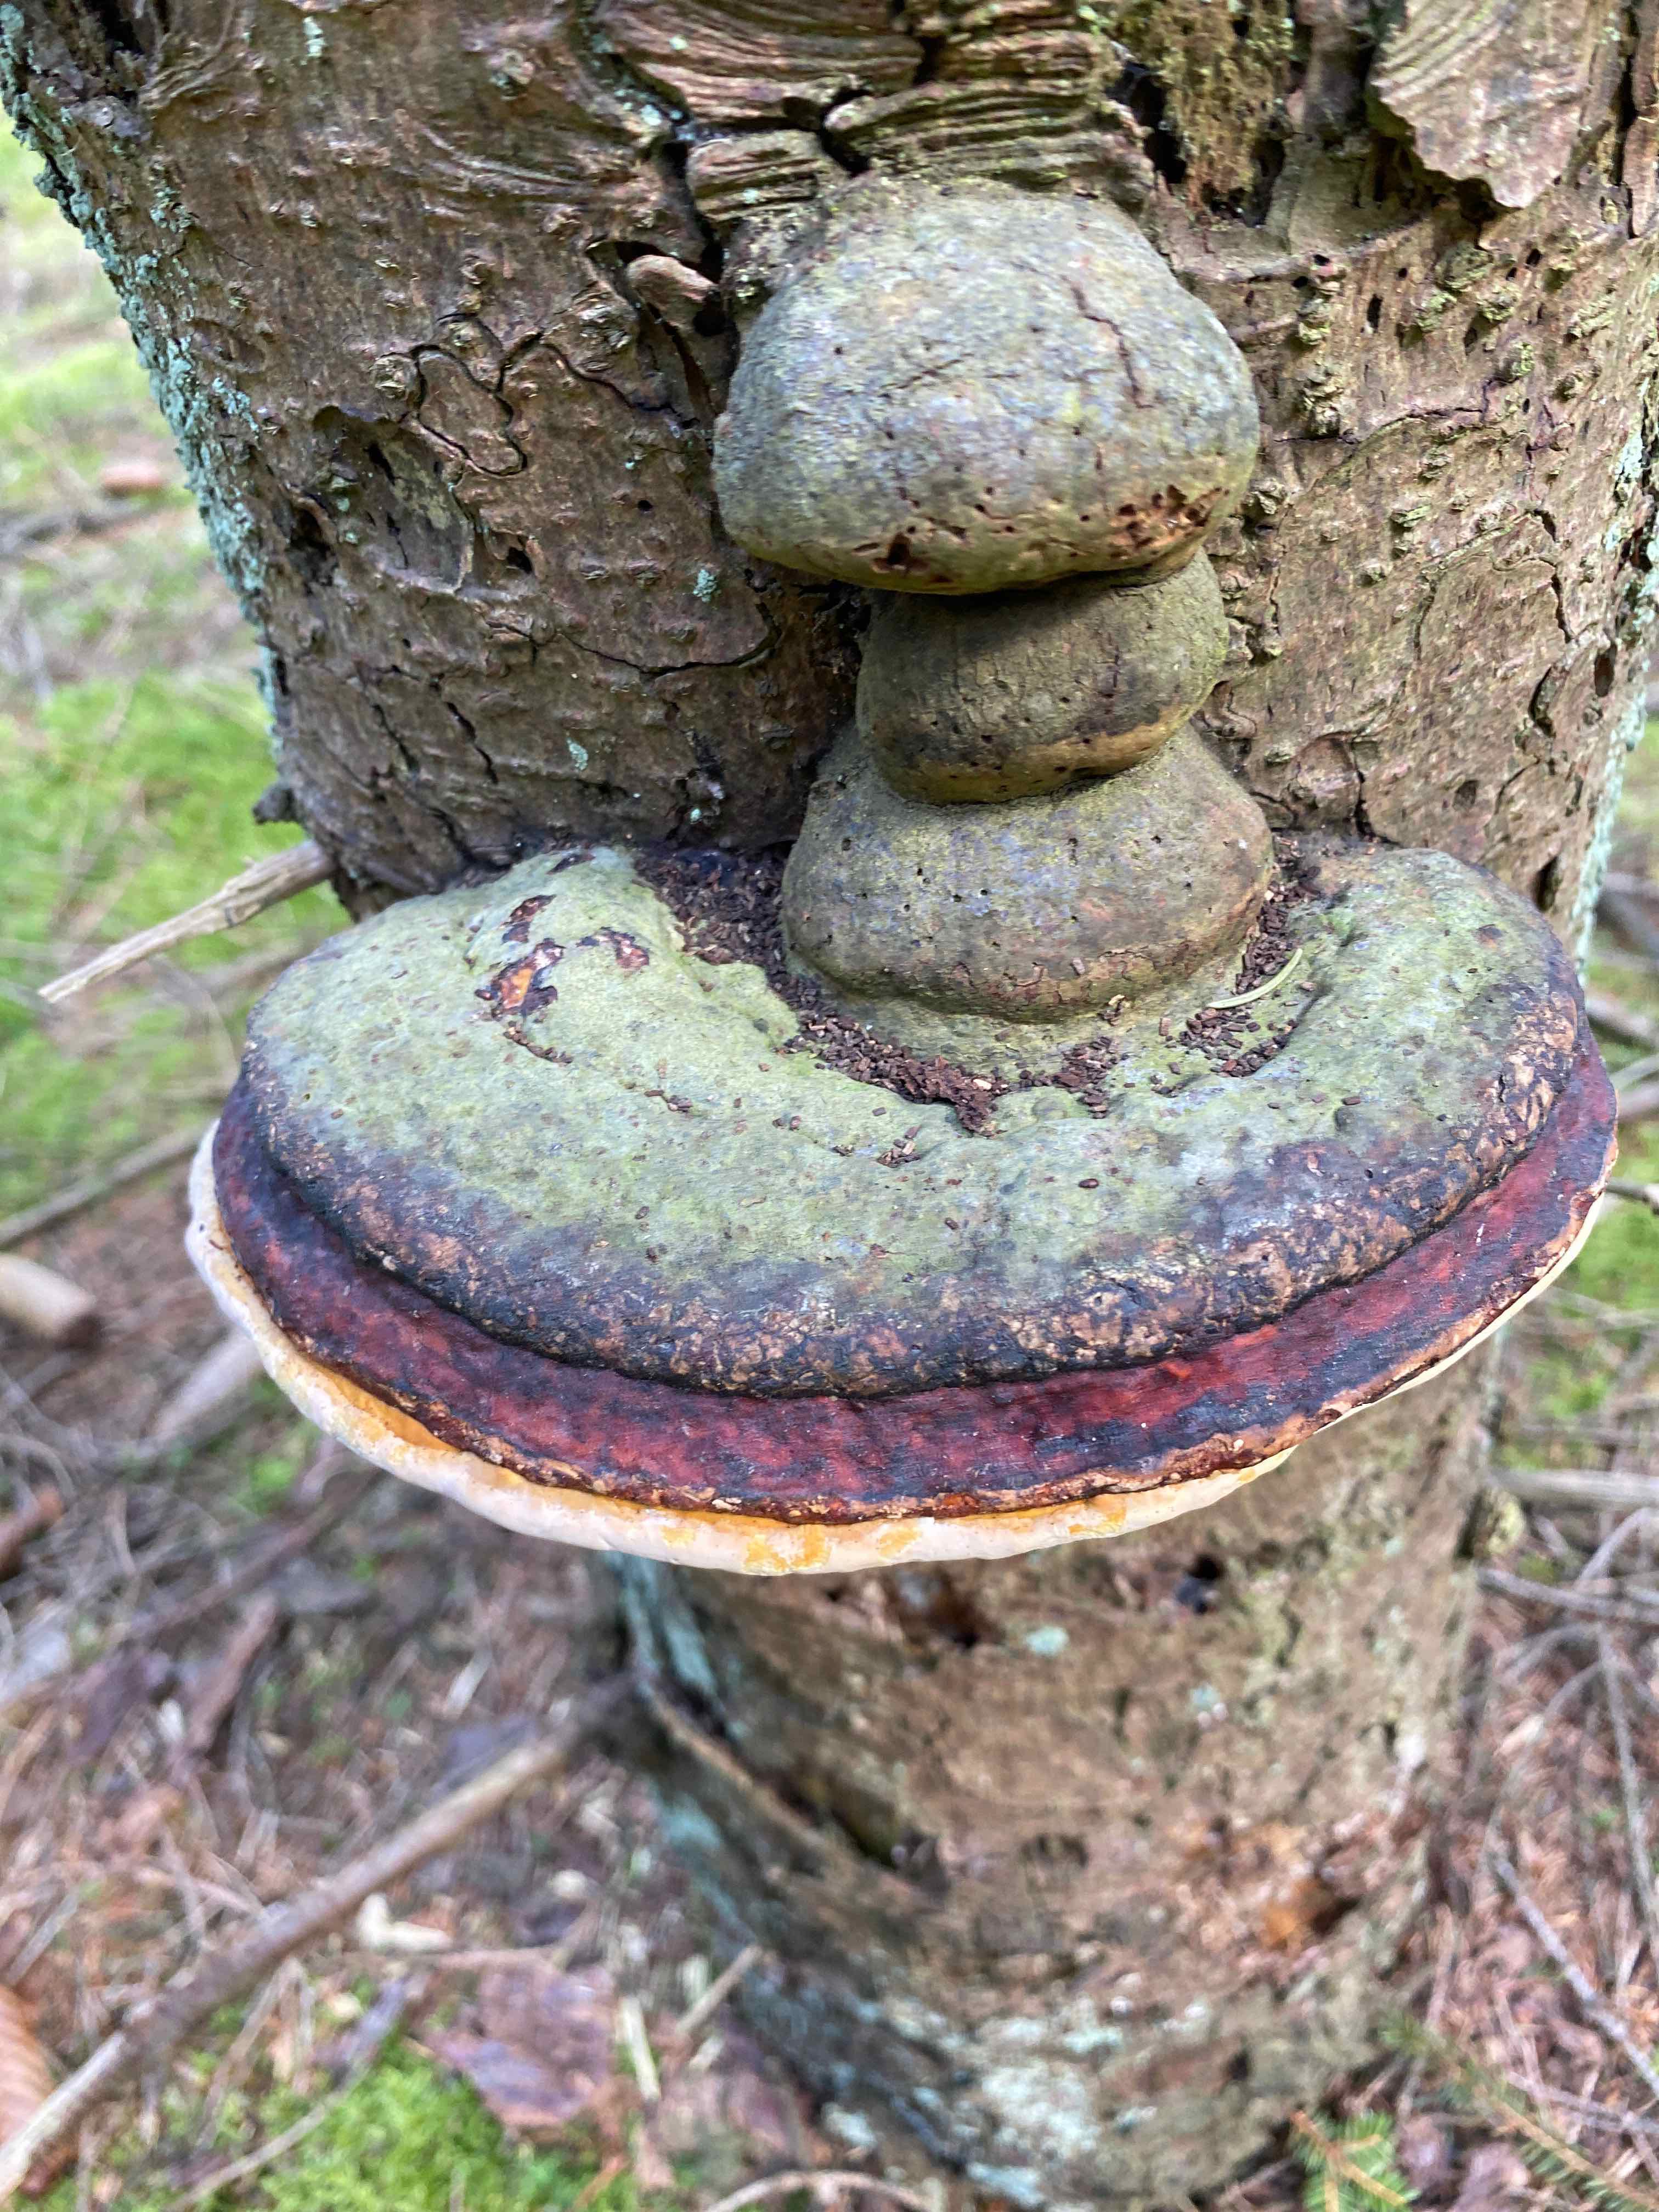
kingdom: Fungi
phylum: Basidiomycota
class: Agaricomycetes
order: Polyporales
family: Fomitopsidaceae
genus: Fomitopsis
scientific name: Fomitopsis pinicola
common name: randbæltet hovporesvamp
